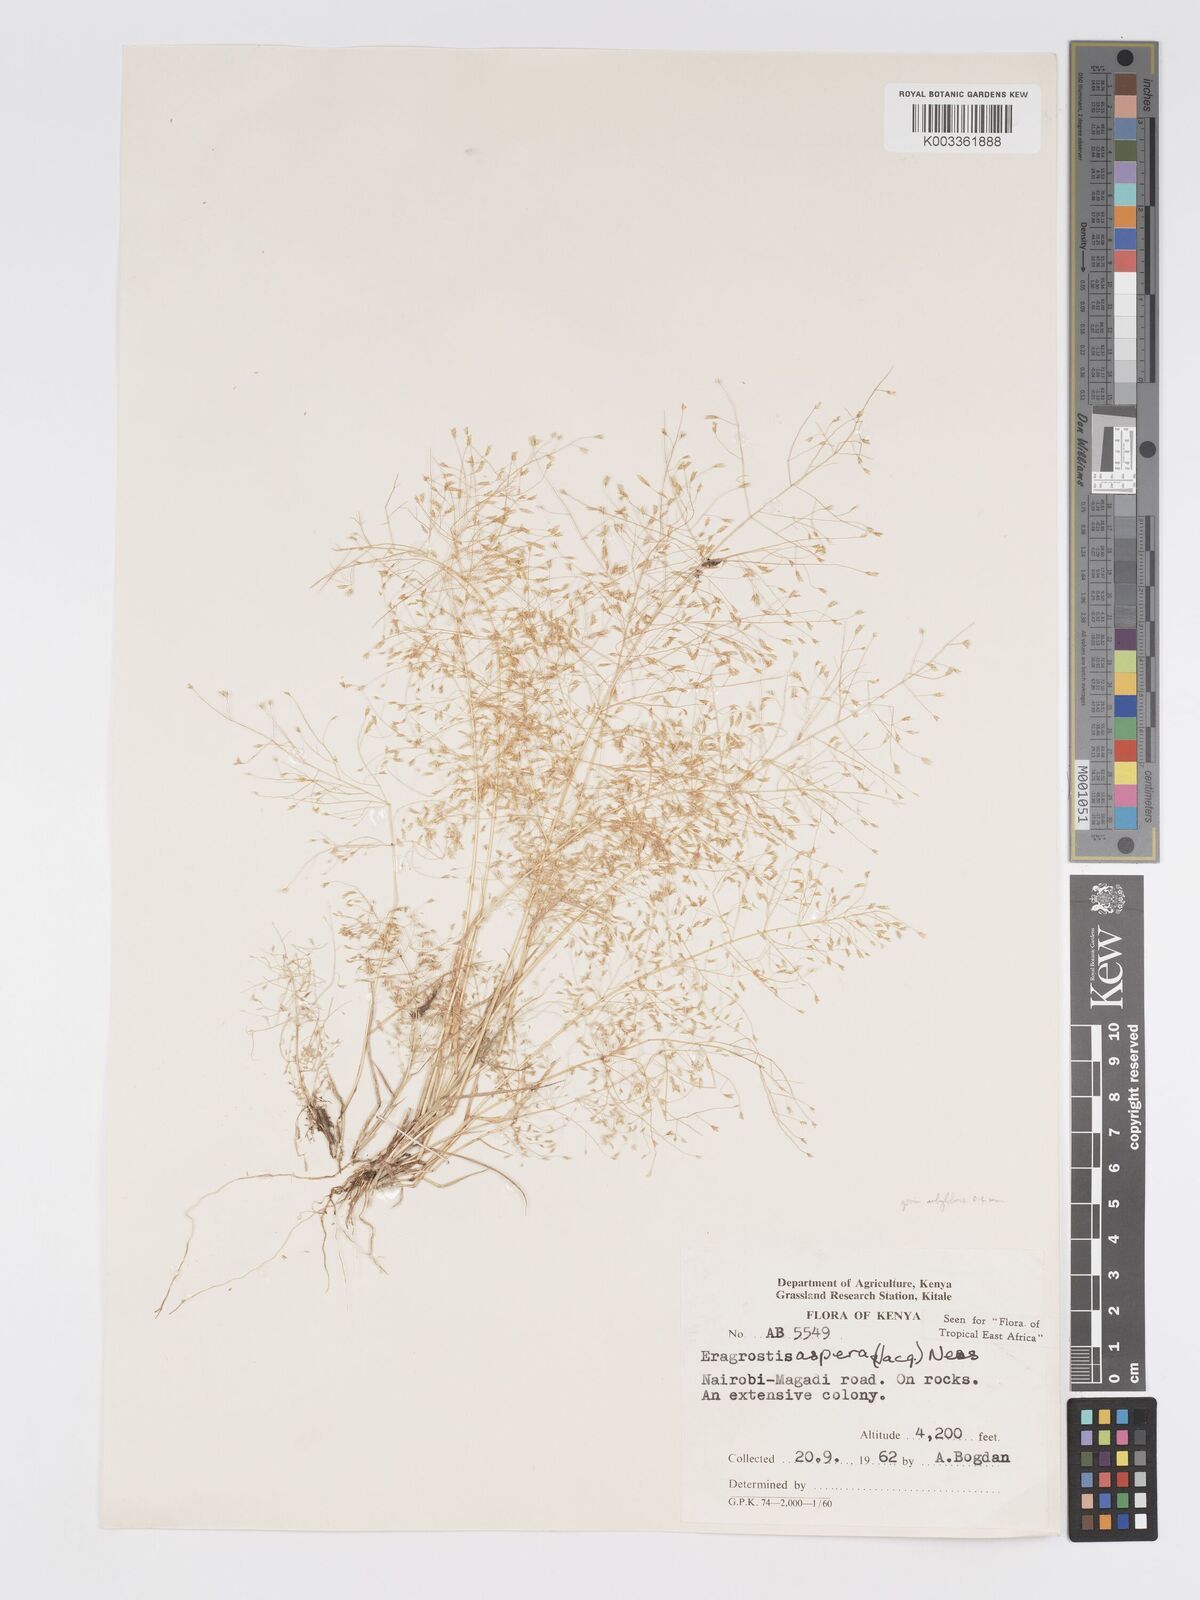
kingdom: Plantae
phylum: Tracheophyta
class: Liliopsida
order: Poales
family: Poaceae
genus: Eragrostis
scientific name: Eragrostis aspera
